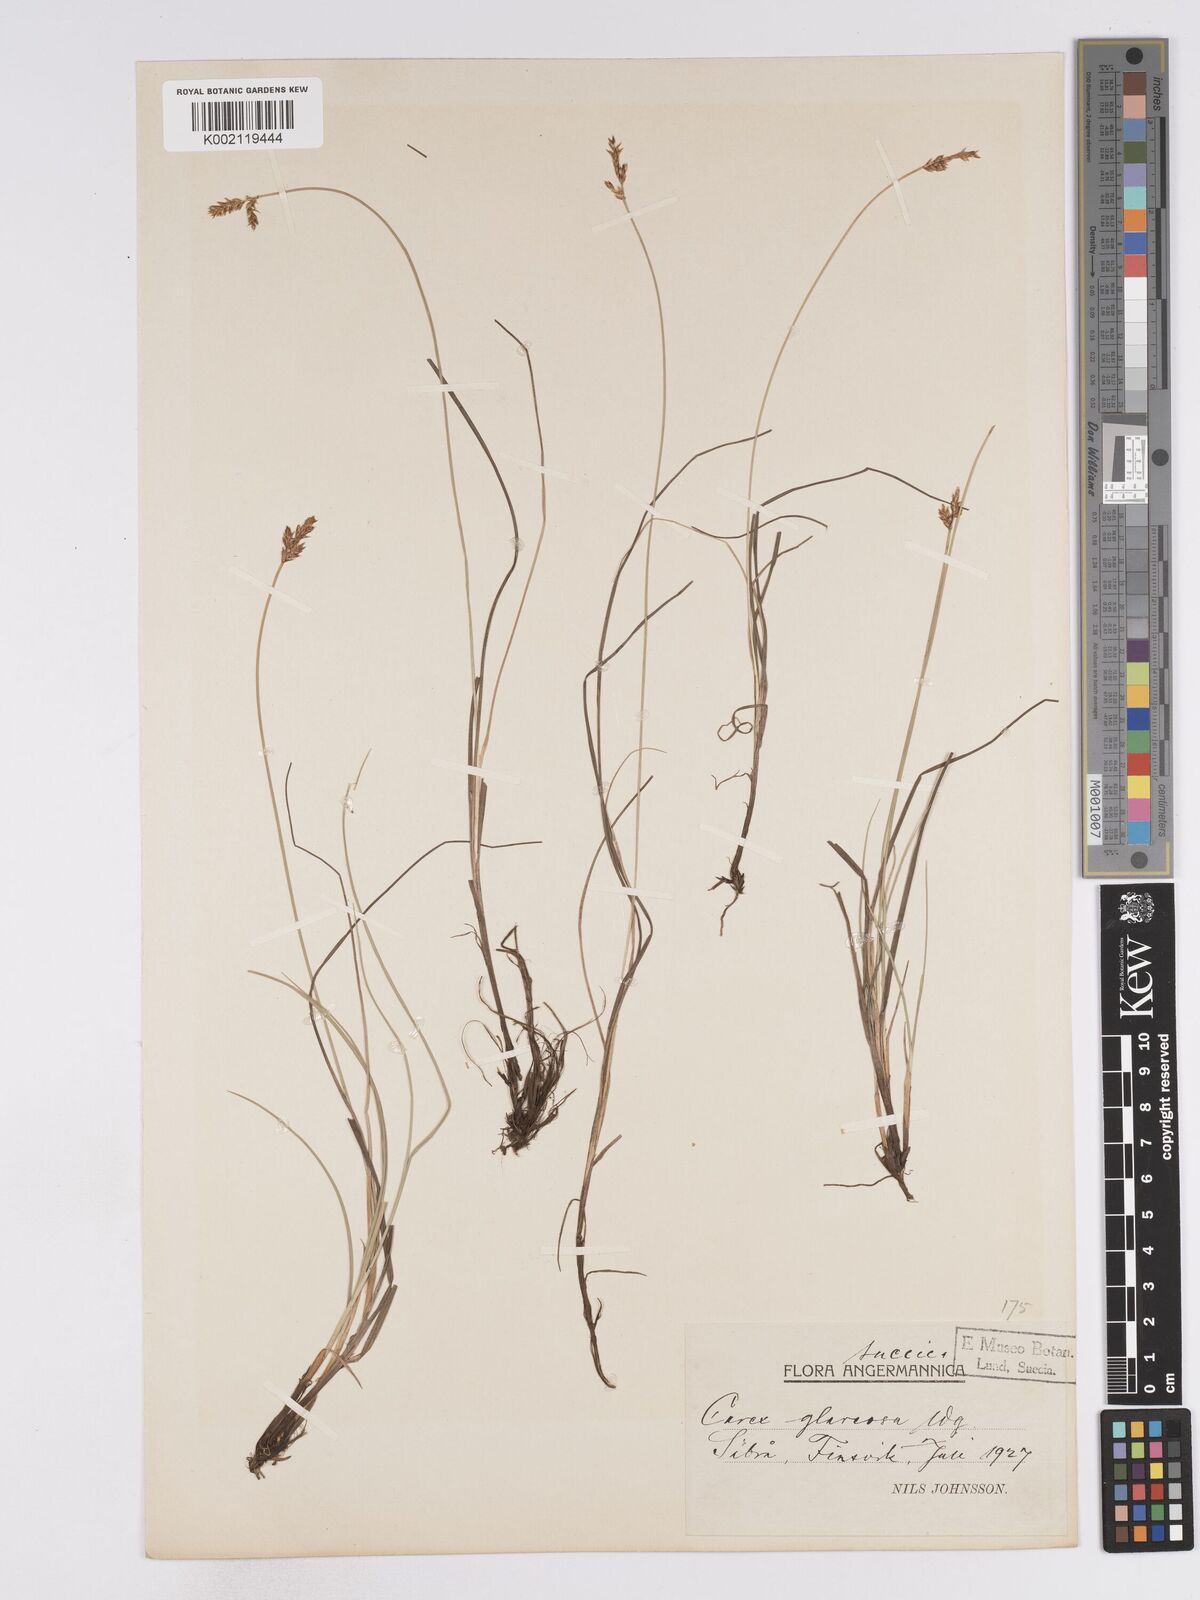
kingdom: Plantae
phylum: Tracheophyta
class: Liliopsida
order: Poales
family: Cyperaceae
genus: Carex
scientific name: Carex glareosa
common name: Clustered sedge
